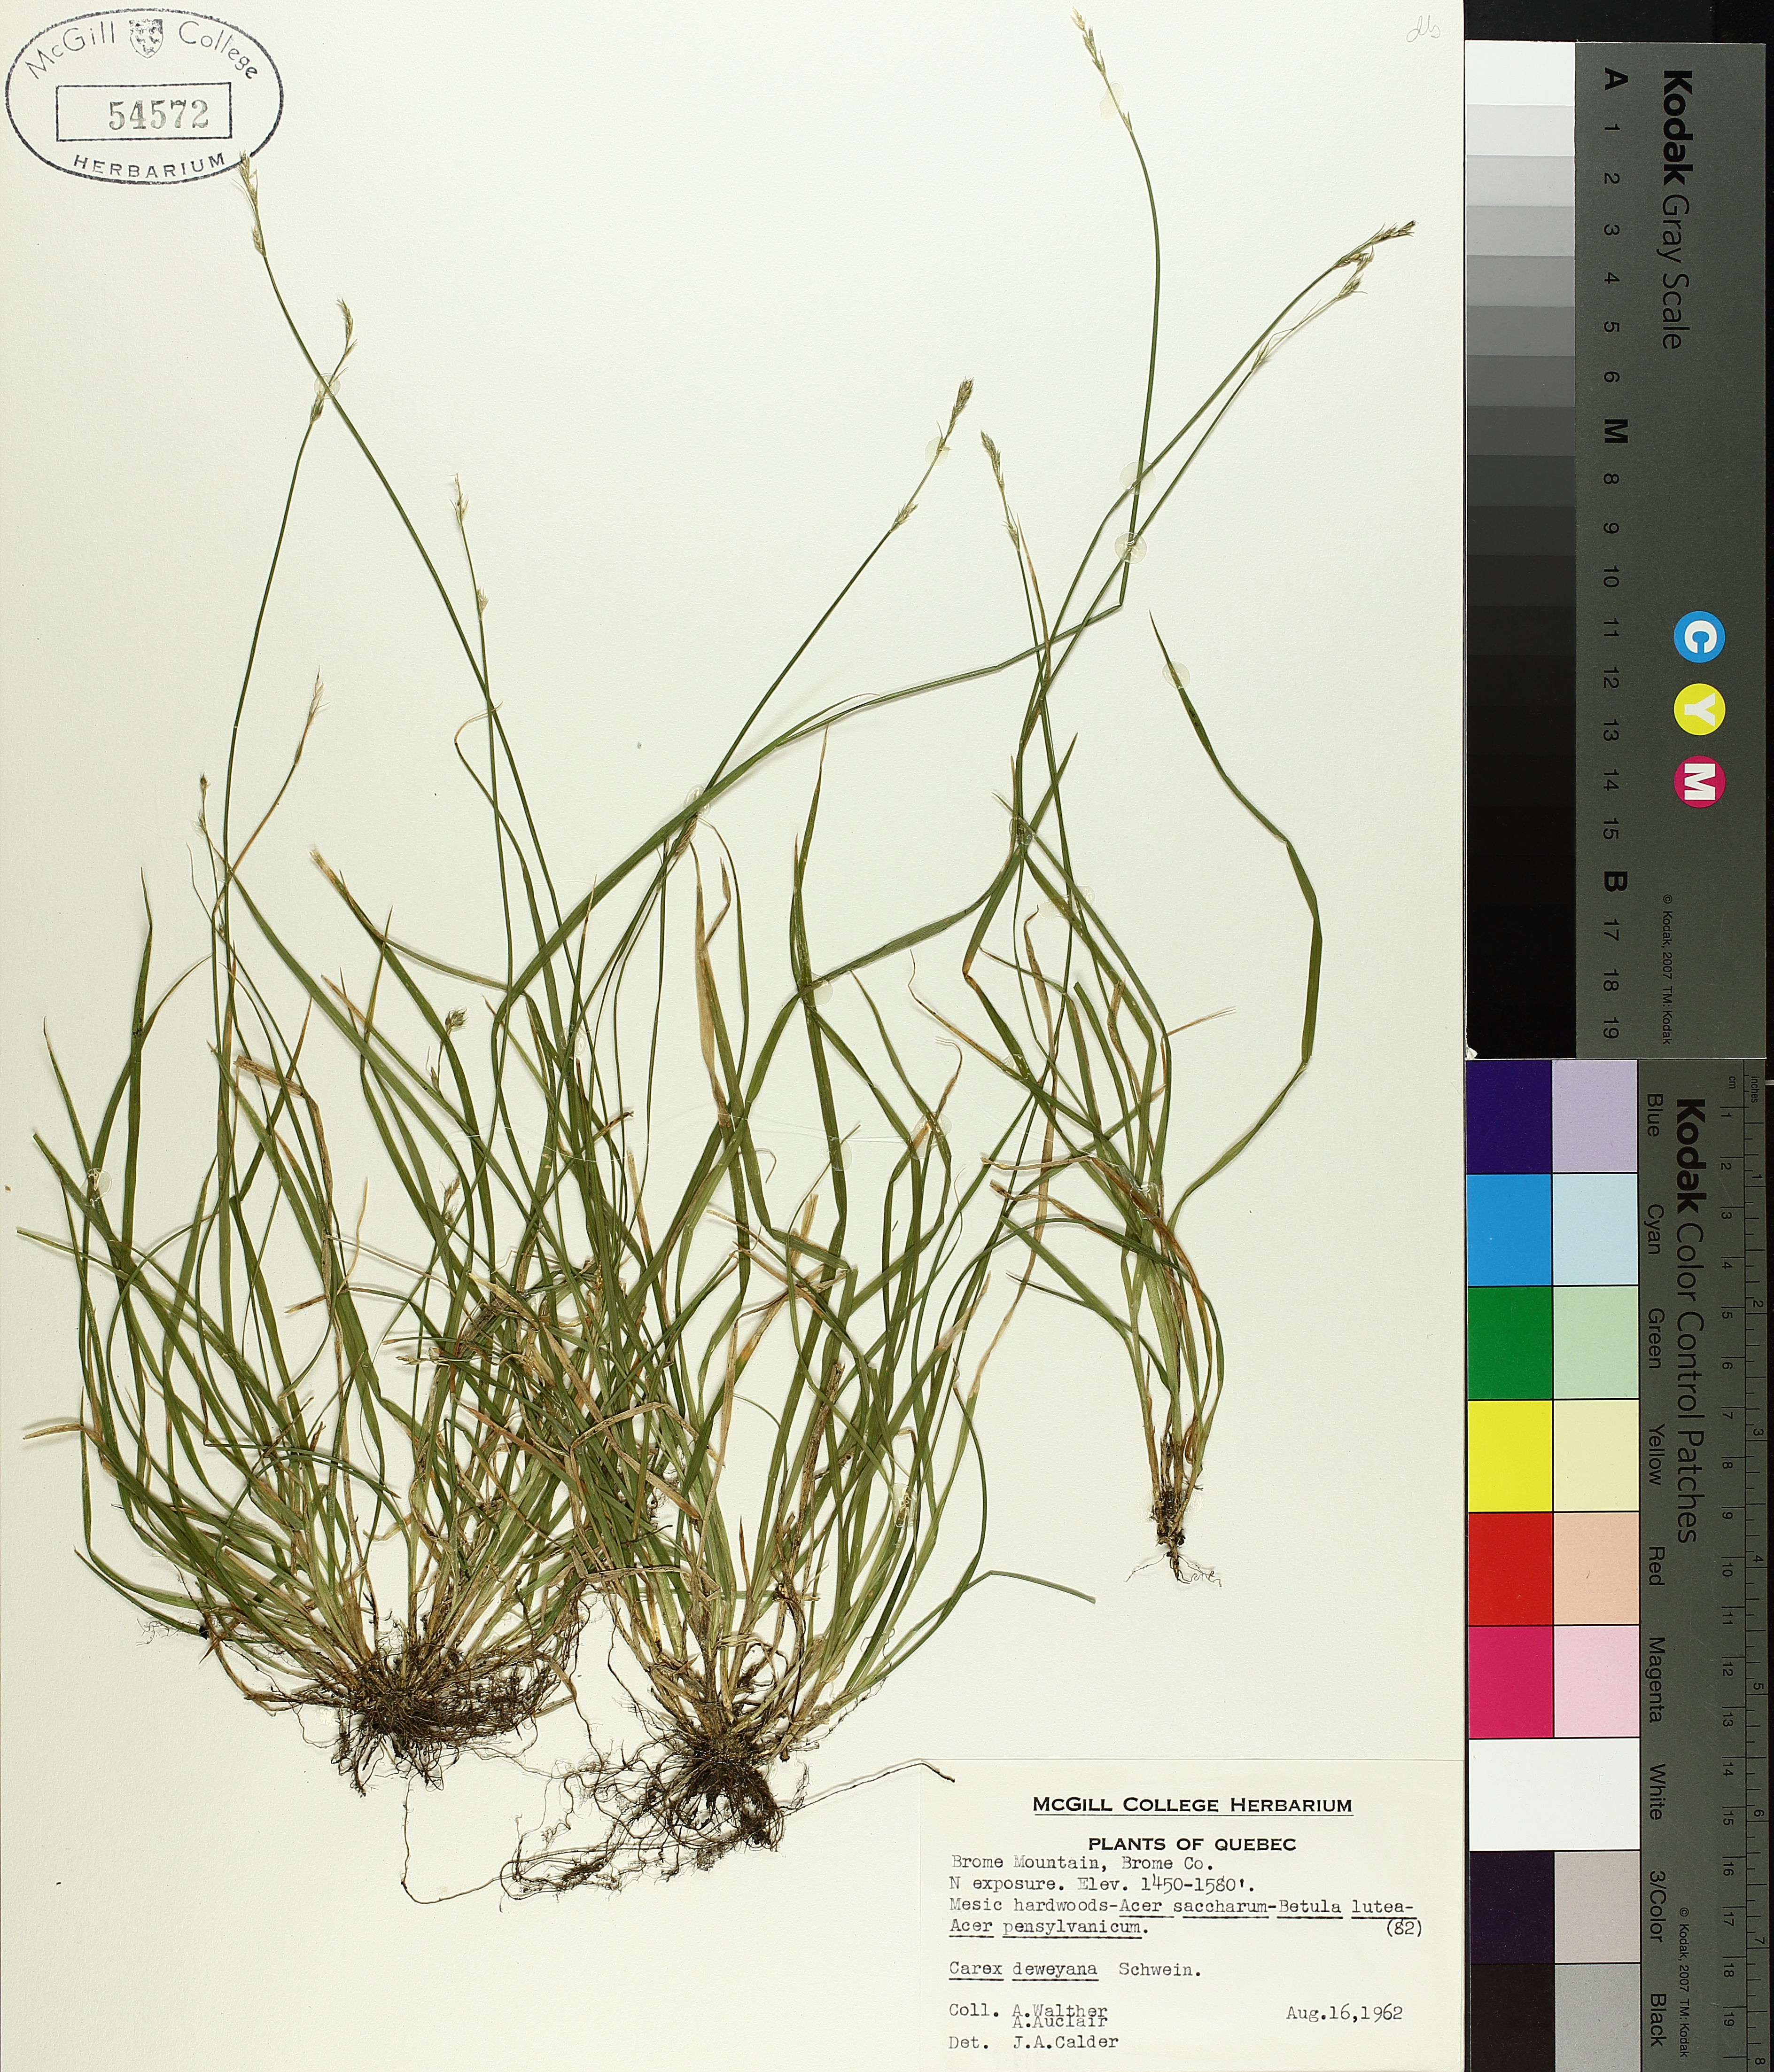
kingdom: Plantae
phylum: Tracheophyta
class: Liliopsida
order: Poales
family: Cyperaceae
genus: Carex
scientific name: Carex deweyana
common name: Dewey's sedge
